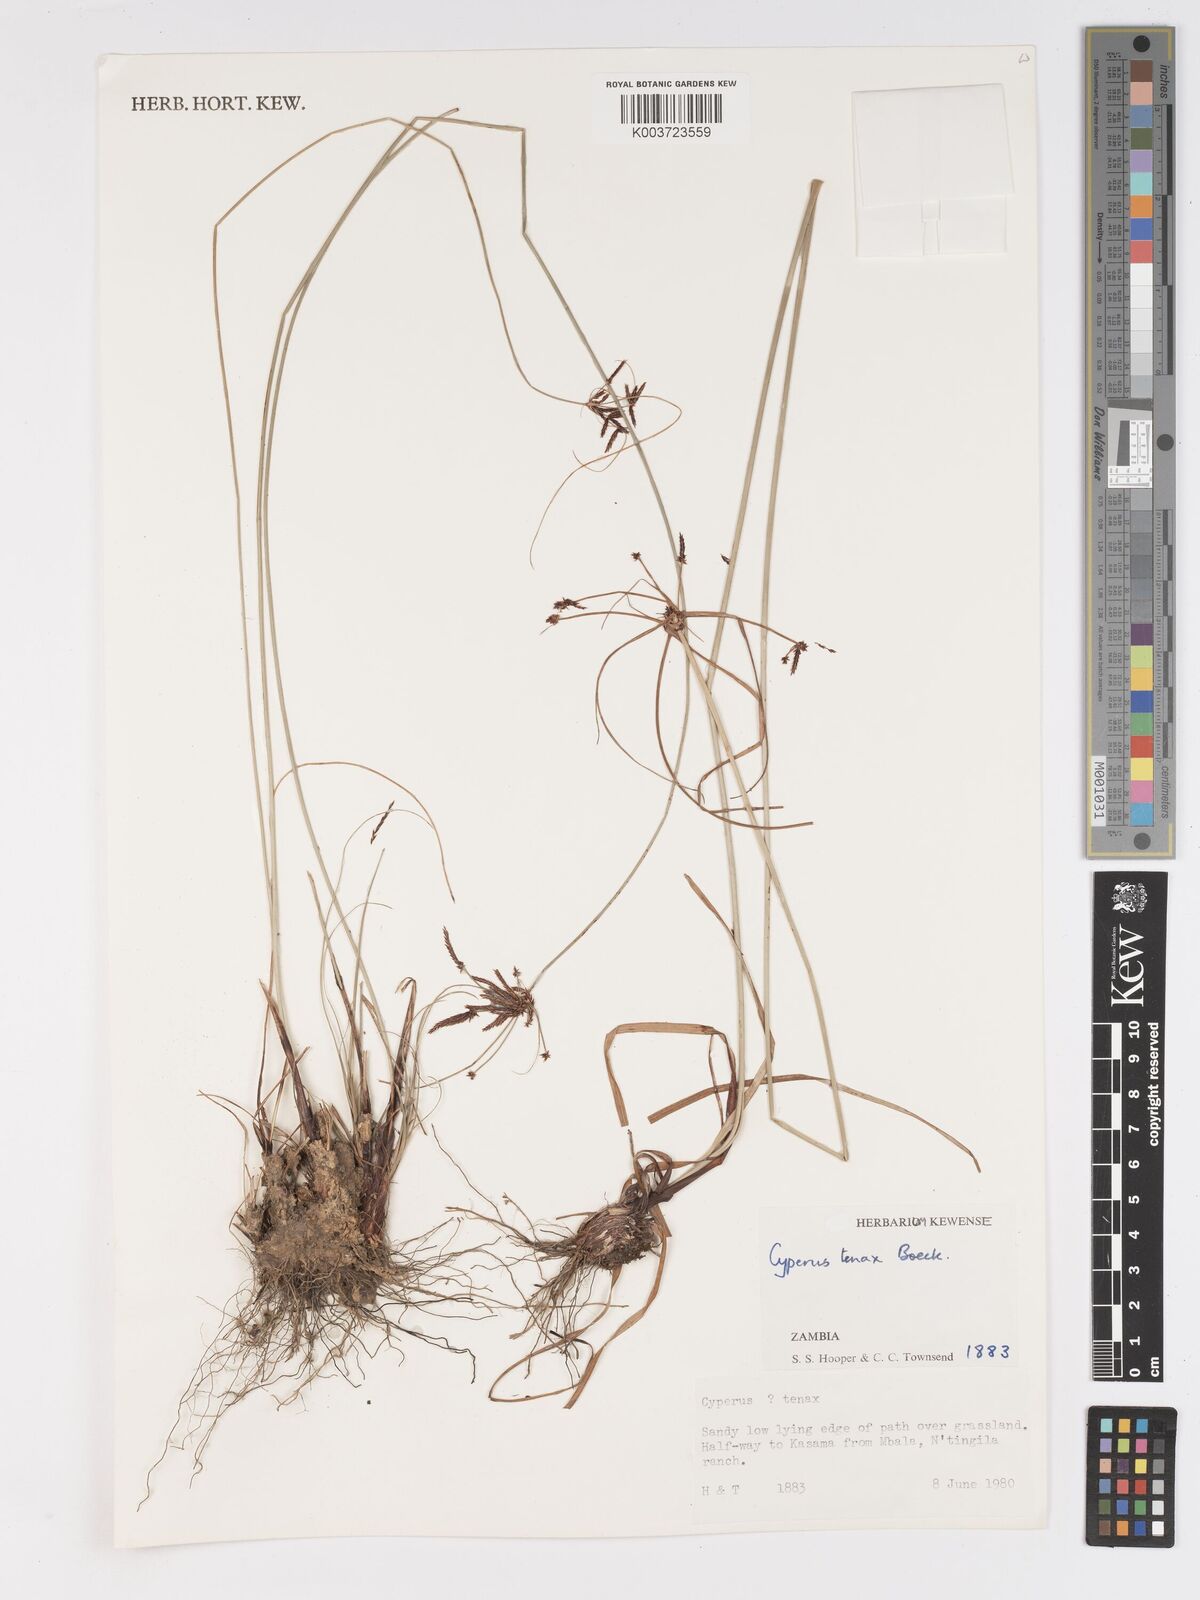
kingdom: Plantae
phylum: Tracheophyta
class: Liliopsida
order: Poales
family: Cyperaceae
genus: Cyperus
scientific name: Cyperus tenax
